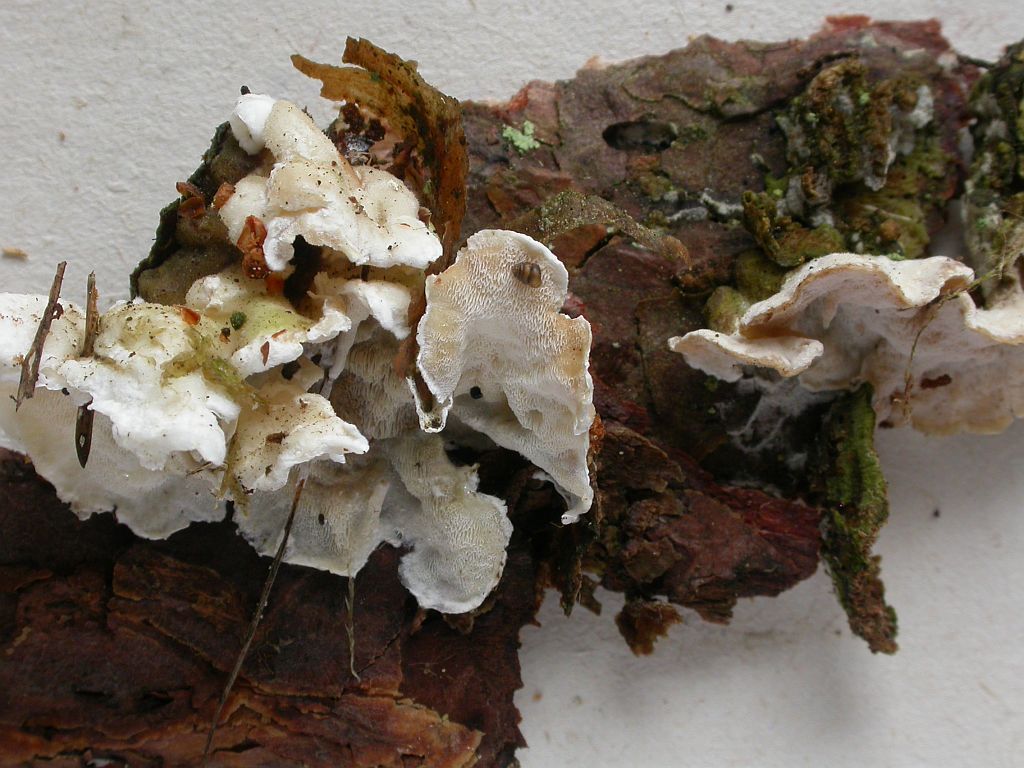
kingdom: Fungi
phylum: Basidiomycota
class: Agaricomycetes
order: Polyporales
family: Incrustoporiaceae
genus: Skeletocutis
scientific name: Skeletocutis carneogrisea
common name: rødgrå krystalporesvamp
